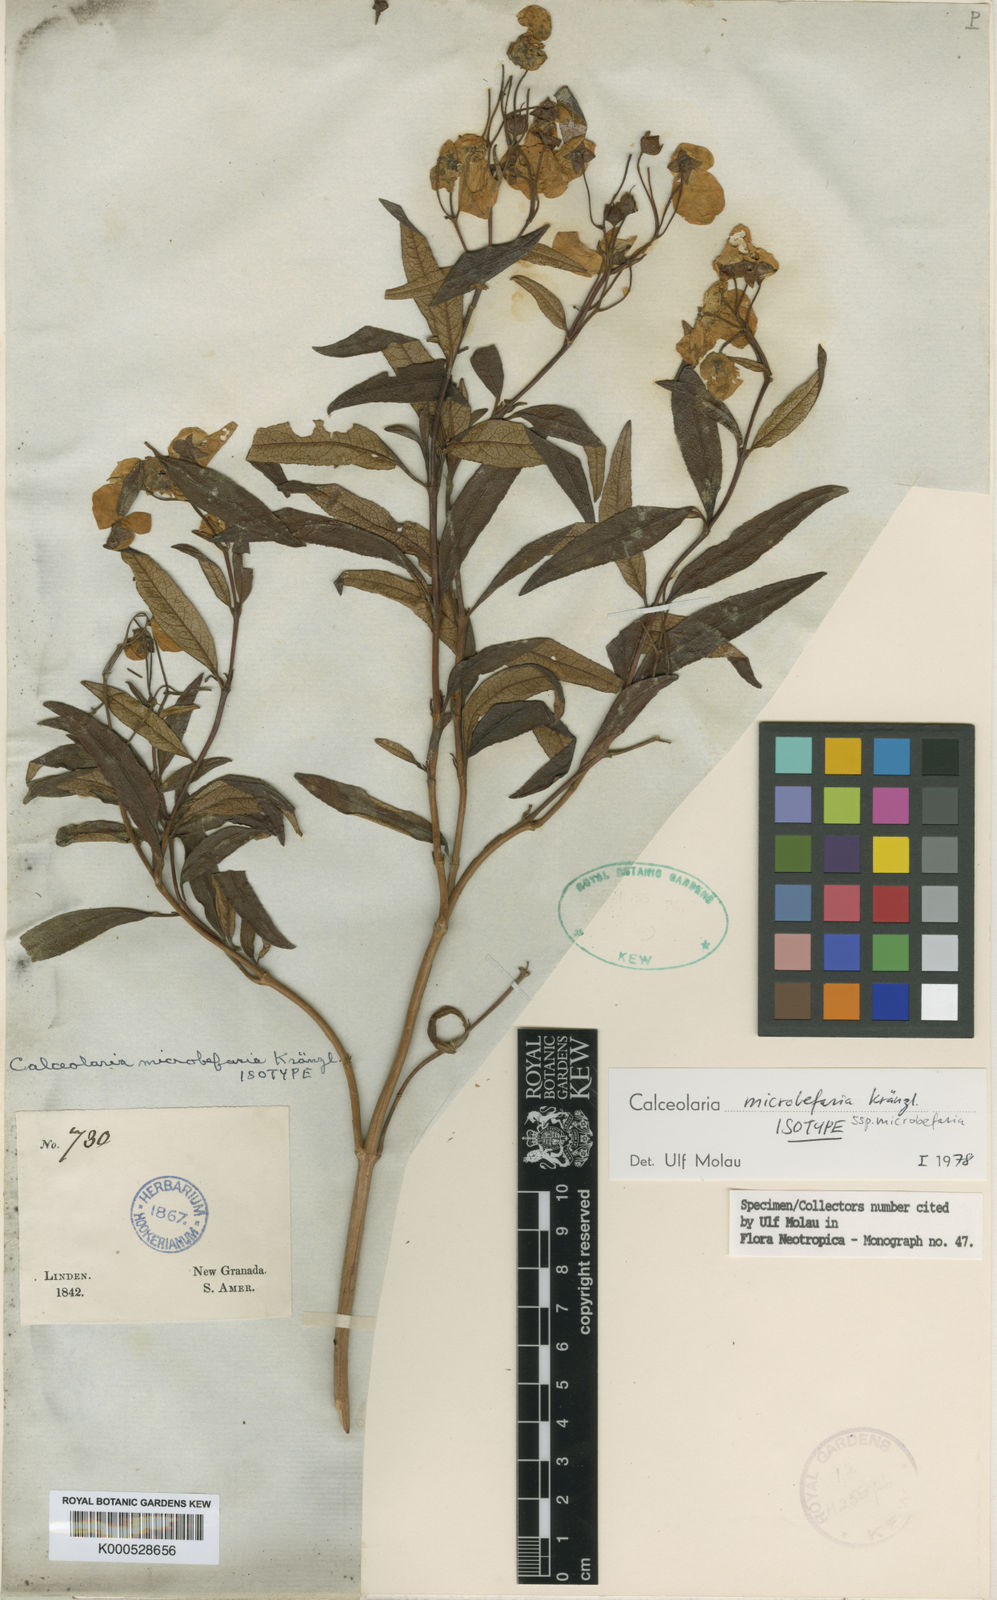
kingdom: Plantae
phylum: Tracheophyta
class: Magnoliopsida
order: Lamiales
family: Calceolariaceae
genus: Calceolaria
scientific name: Calceolaria microbefaria
